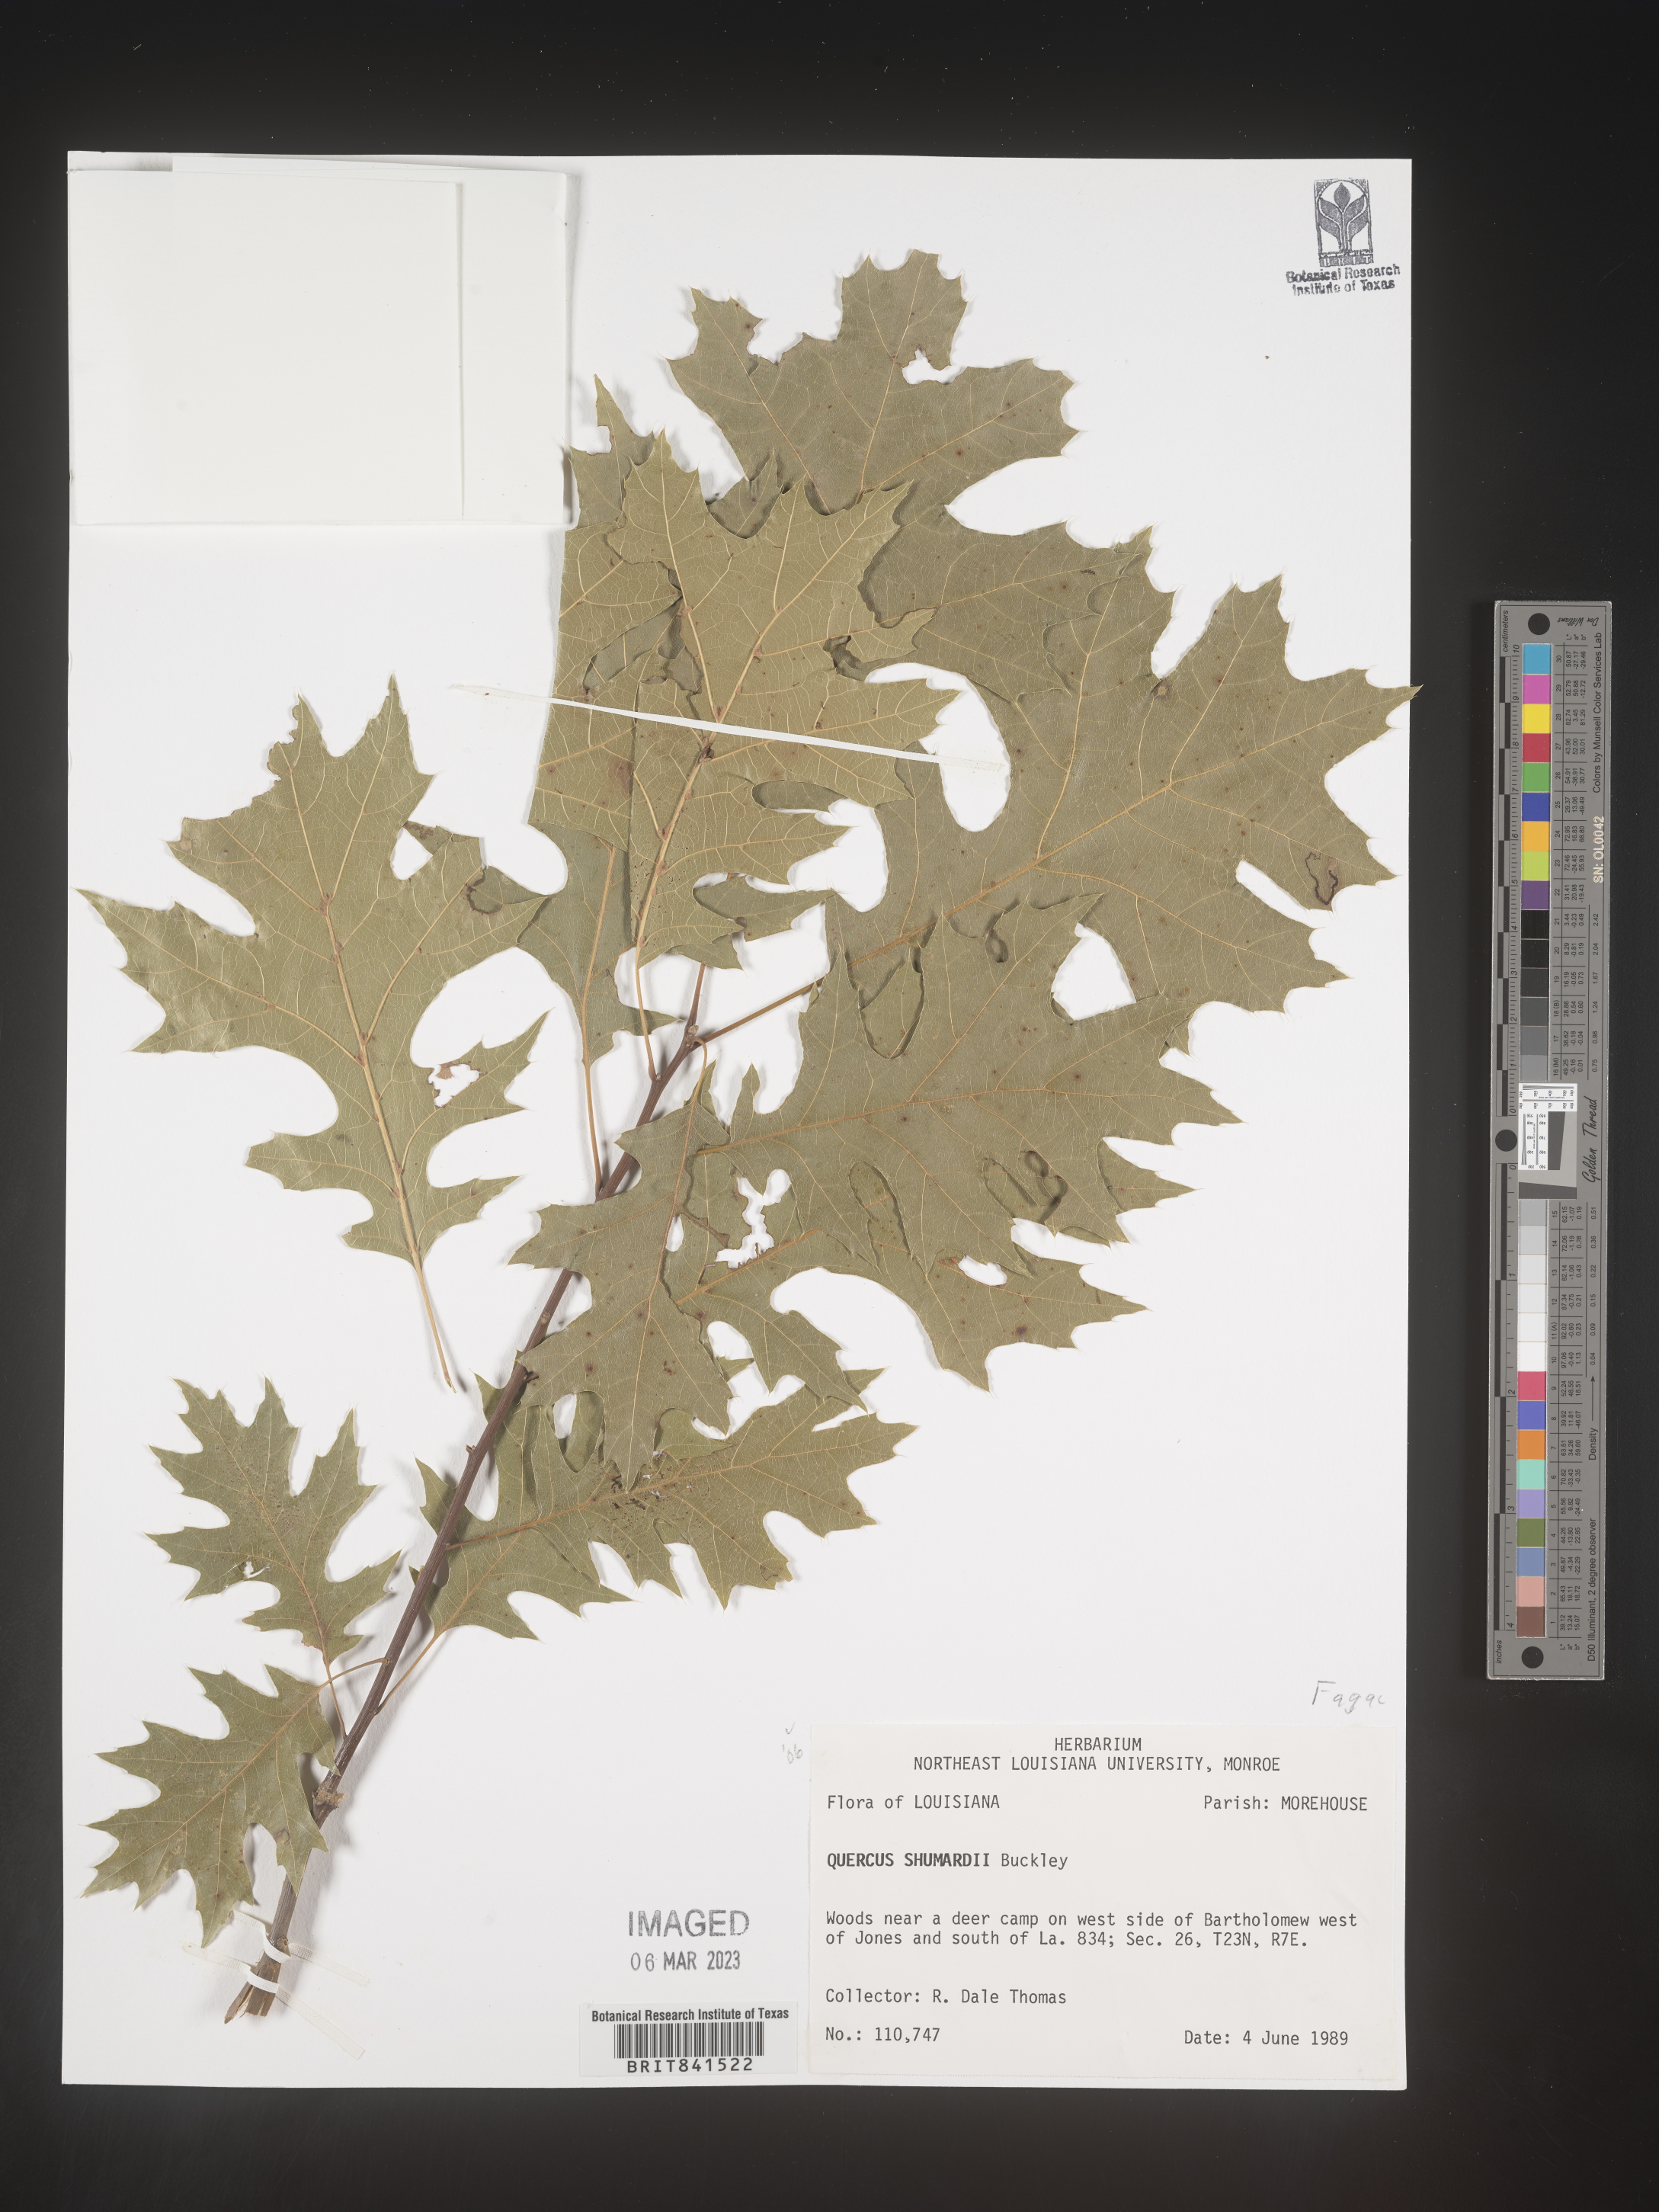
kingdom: Plantae
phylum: Tracheophyta
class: Magnoliopsida
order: Fagales
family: Fagaceae
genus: Quercus
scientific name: Quercus shumardii
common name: Shumard oak
